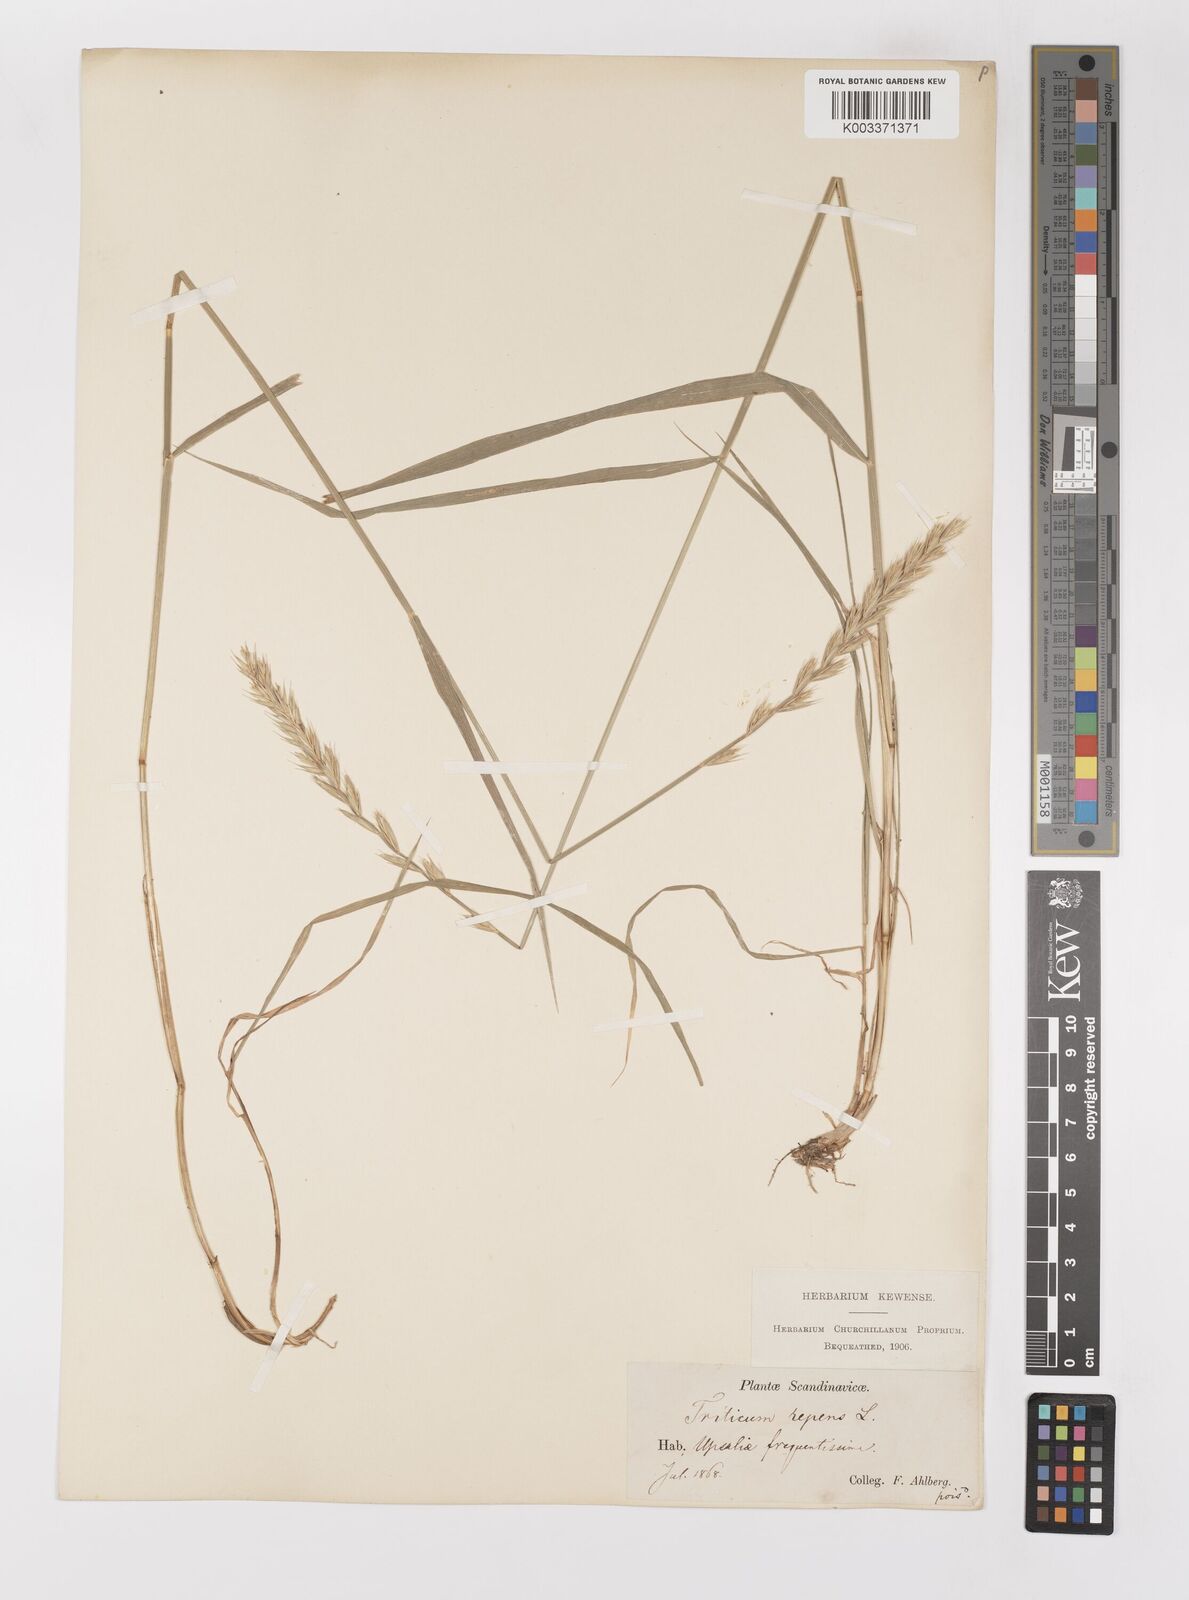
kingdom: Plantae
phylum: Tracheophyta
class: Liliopsida
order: Poales
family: Poaceae
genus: Elymus
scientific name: Elymus repens
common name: Quackgrass
